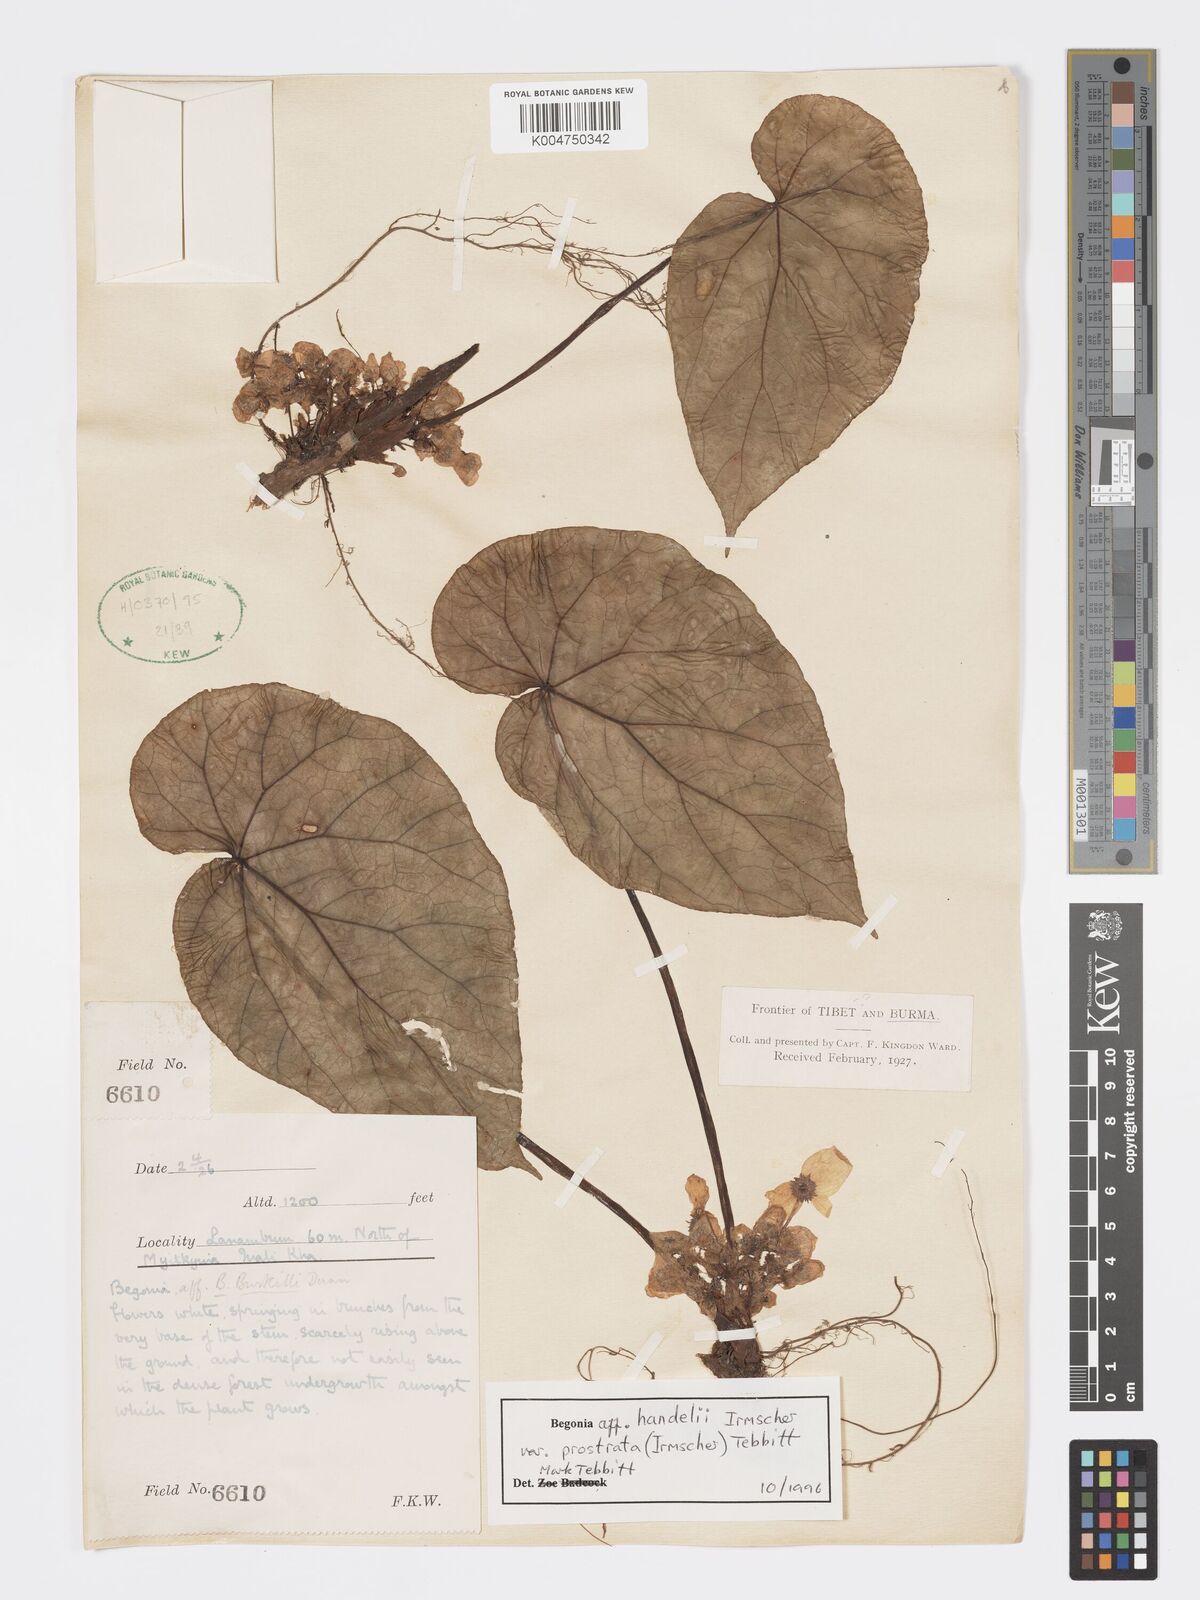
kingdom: Plantae
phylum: Tracheophyta
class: Magnoliopsida
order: Cucurbitales
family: Begoniaceae
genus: Begonia
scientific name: Begonia handelii
